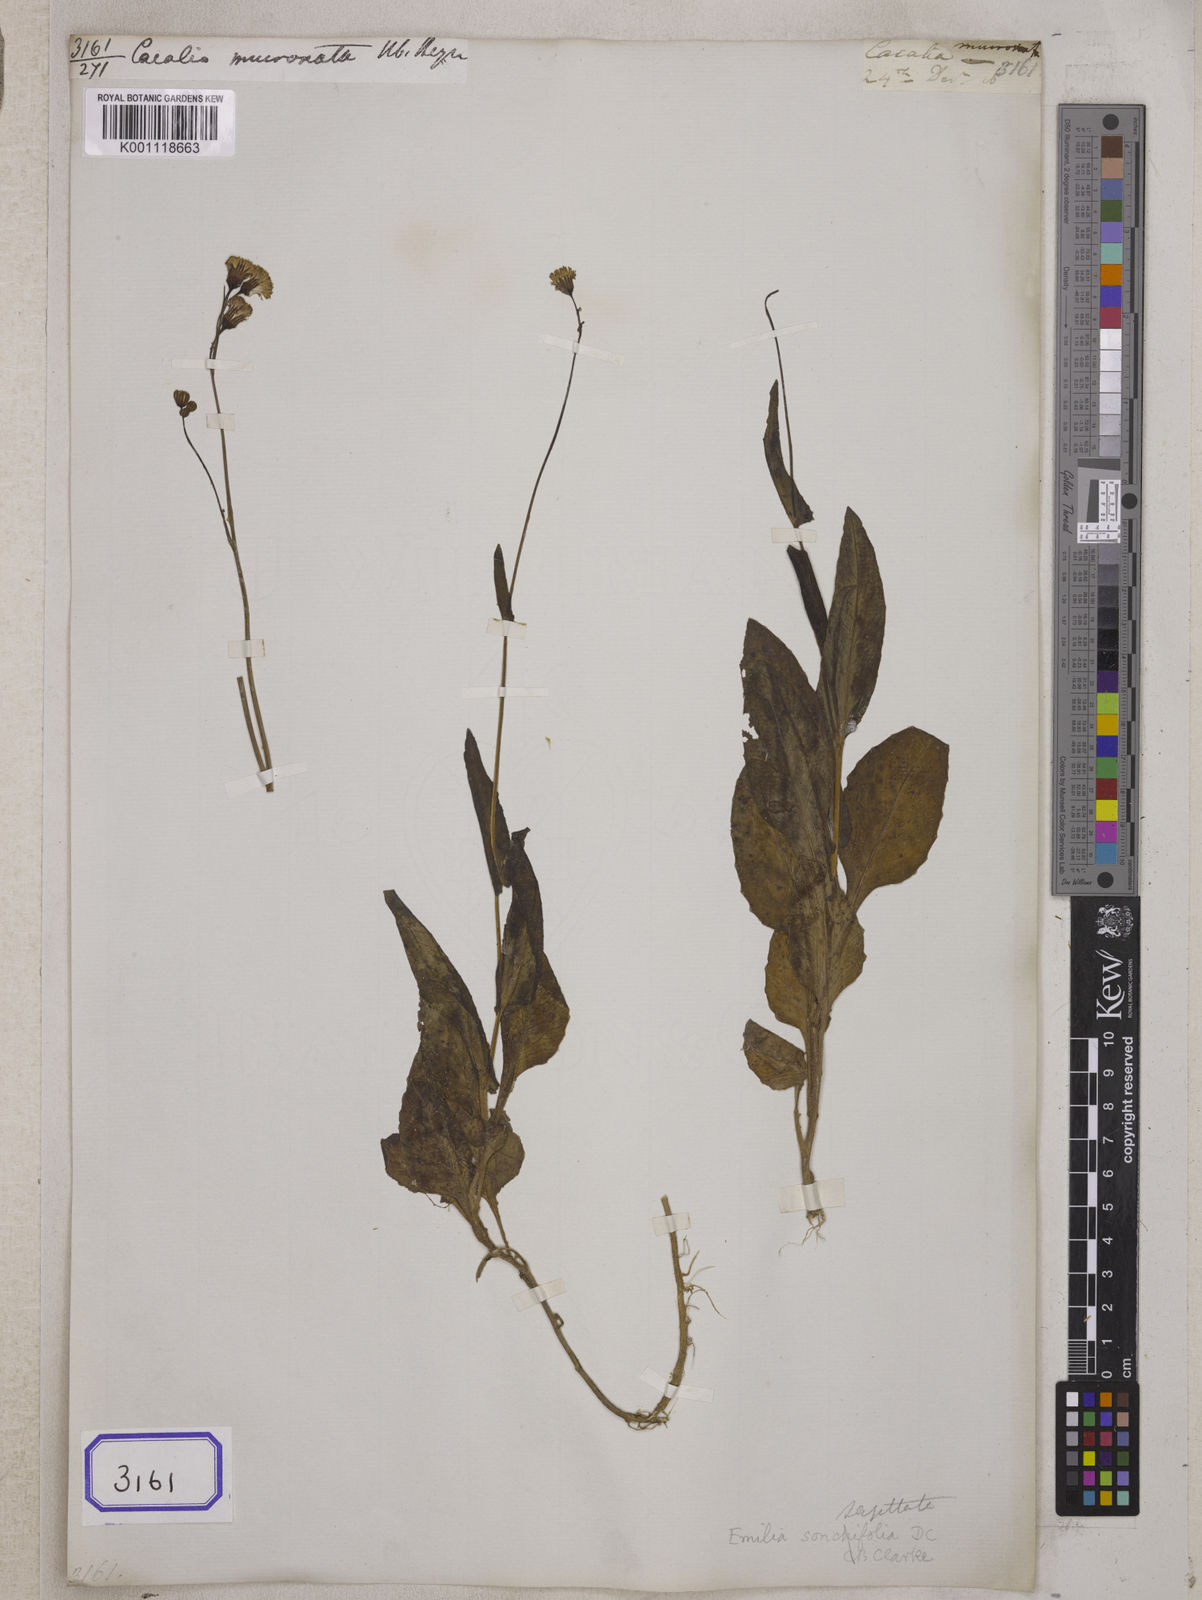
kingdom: Plantae
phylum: Tracheophyta
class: Magnoliopsida
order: Asterales
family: Asteraceae
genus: Emilia
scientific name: Emilia javanica
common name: Tassel-flower
